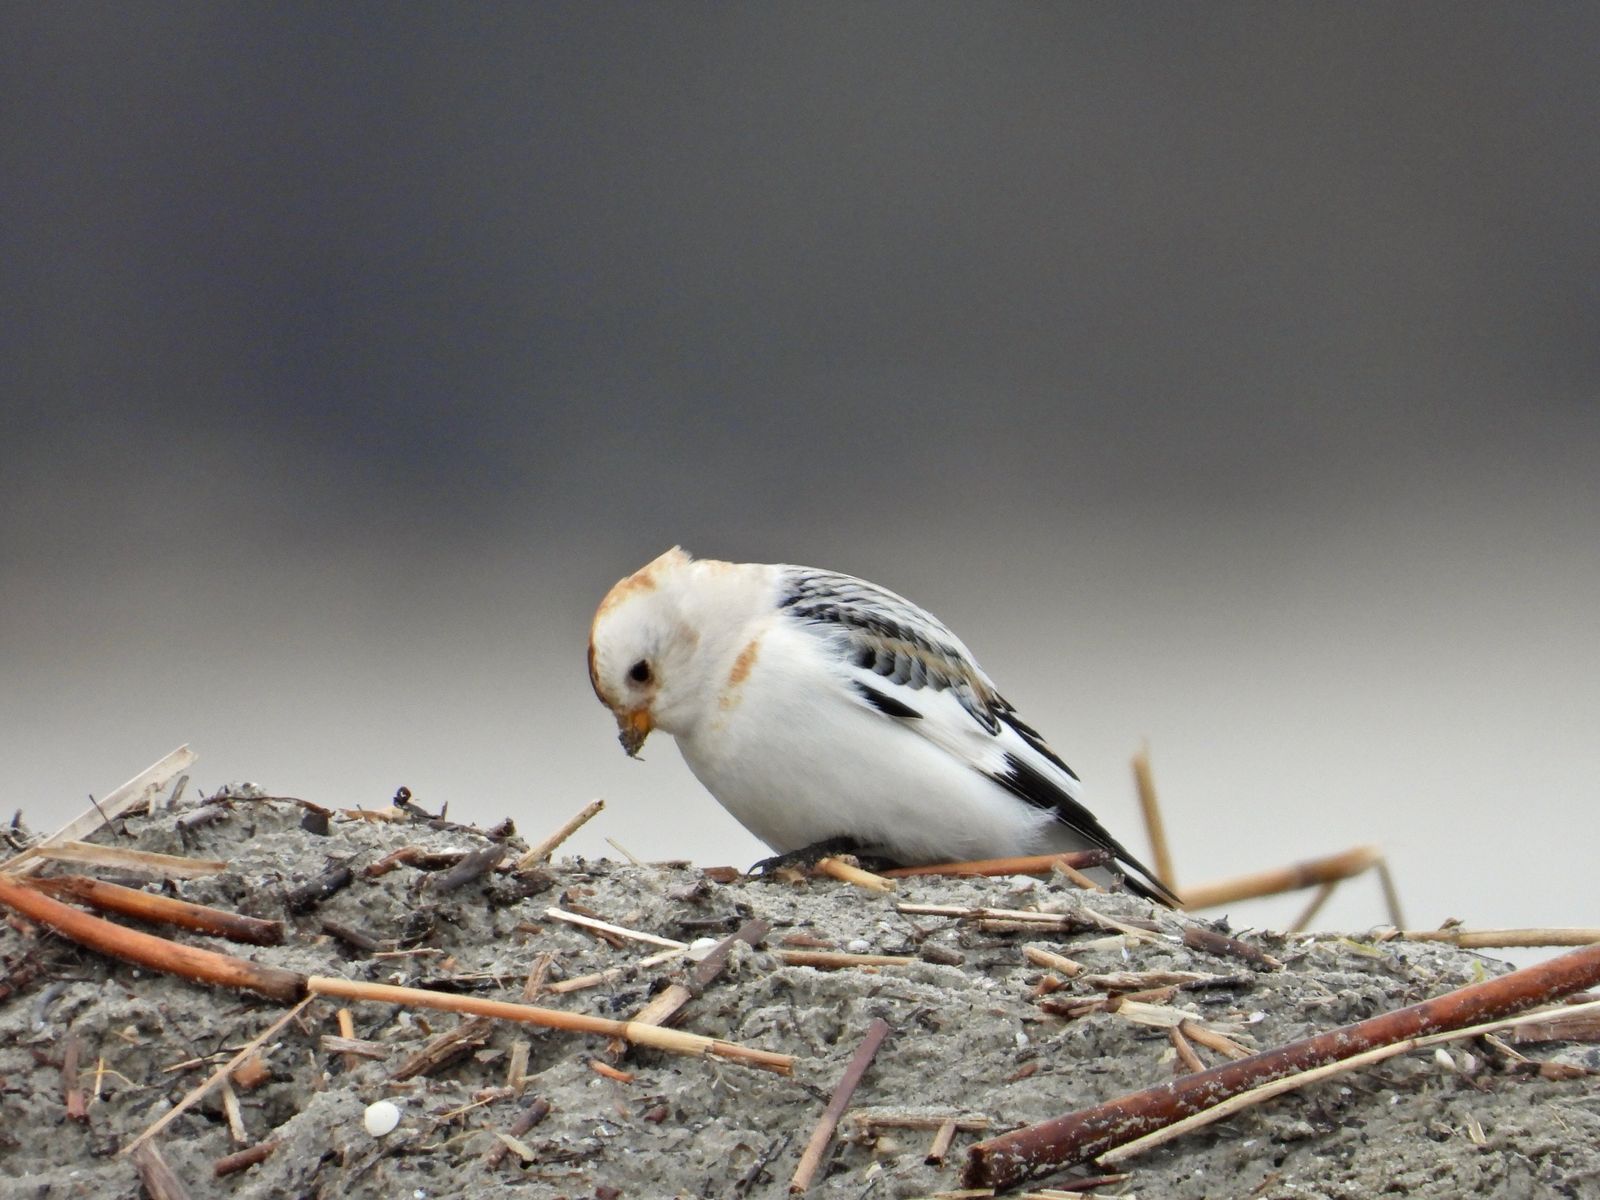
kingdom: Animalia
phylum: Chordata
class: Aves
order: Passeriformes
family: Calcariidae
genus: Plectrophenax
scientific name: Plectrophenax nivalis
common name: Snow bunting
